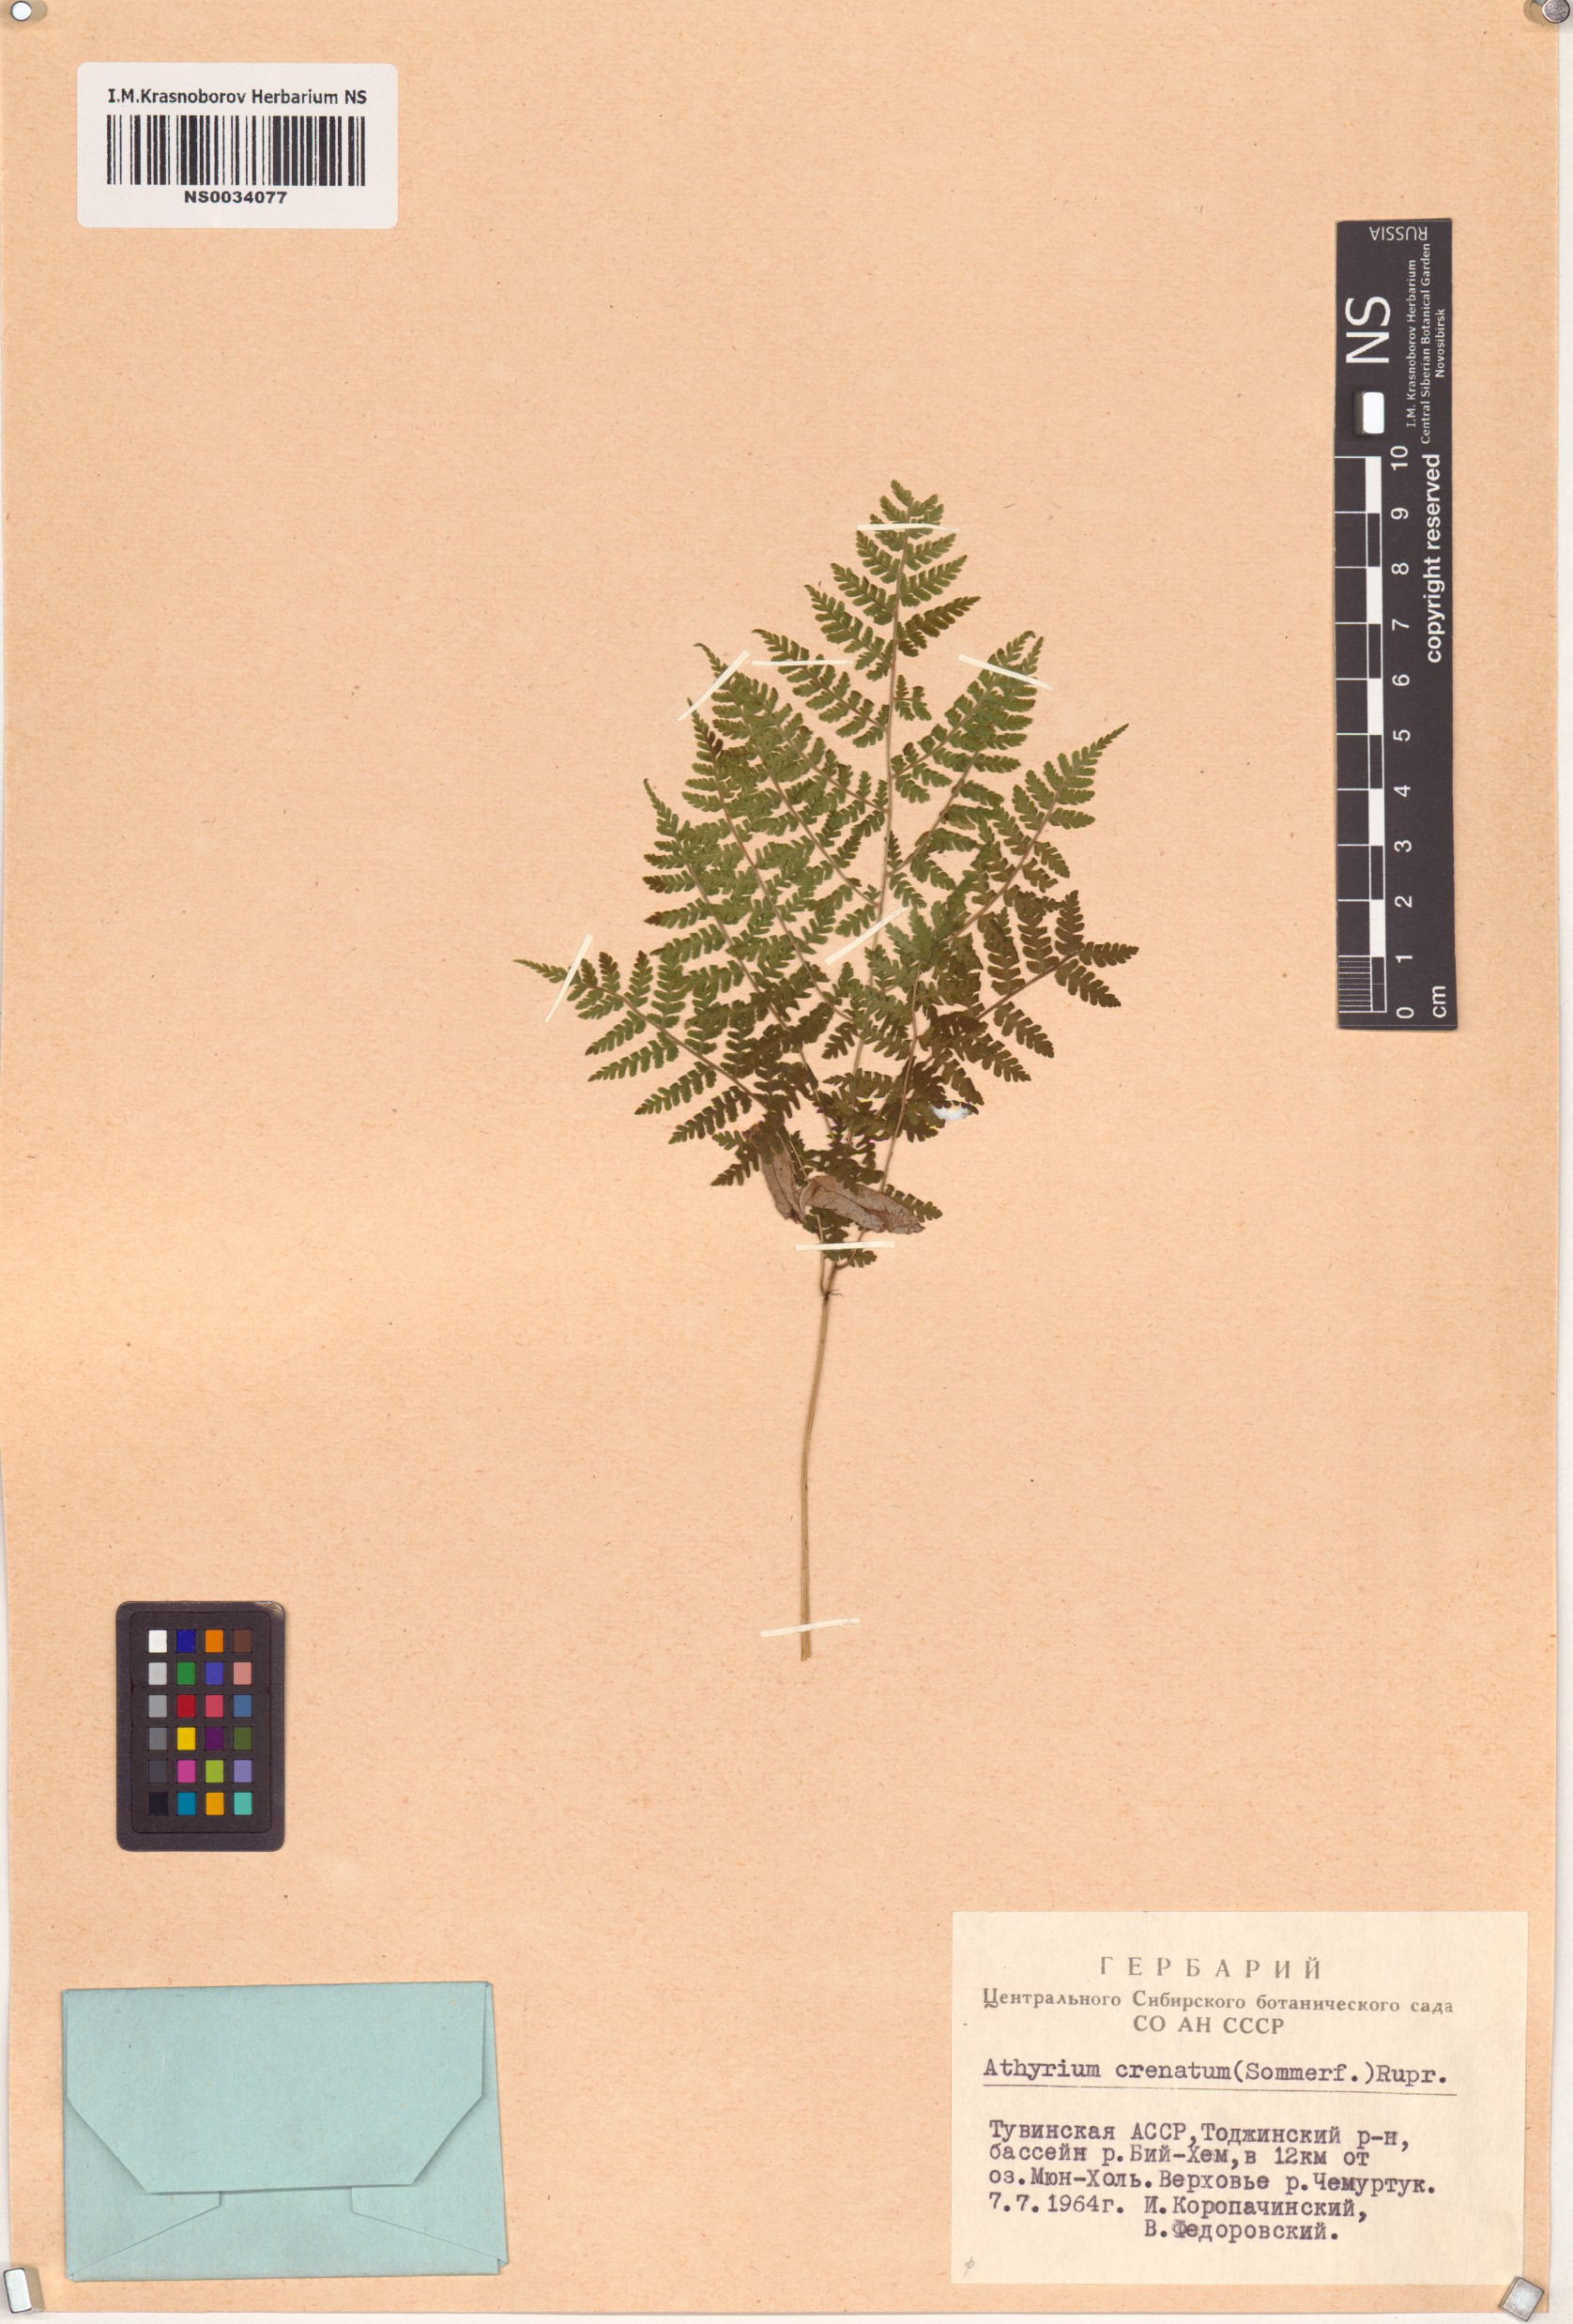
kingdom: Plantae
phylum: Tracheophyta
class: Polypodiopsida
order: Polypodiales
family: Athyriaceae
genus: Diplazium
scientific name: Diplazium sibiricum
